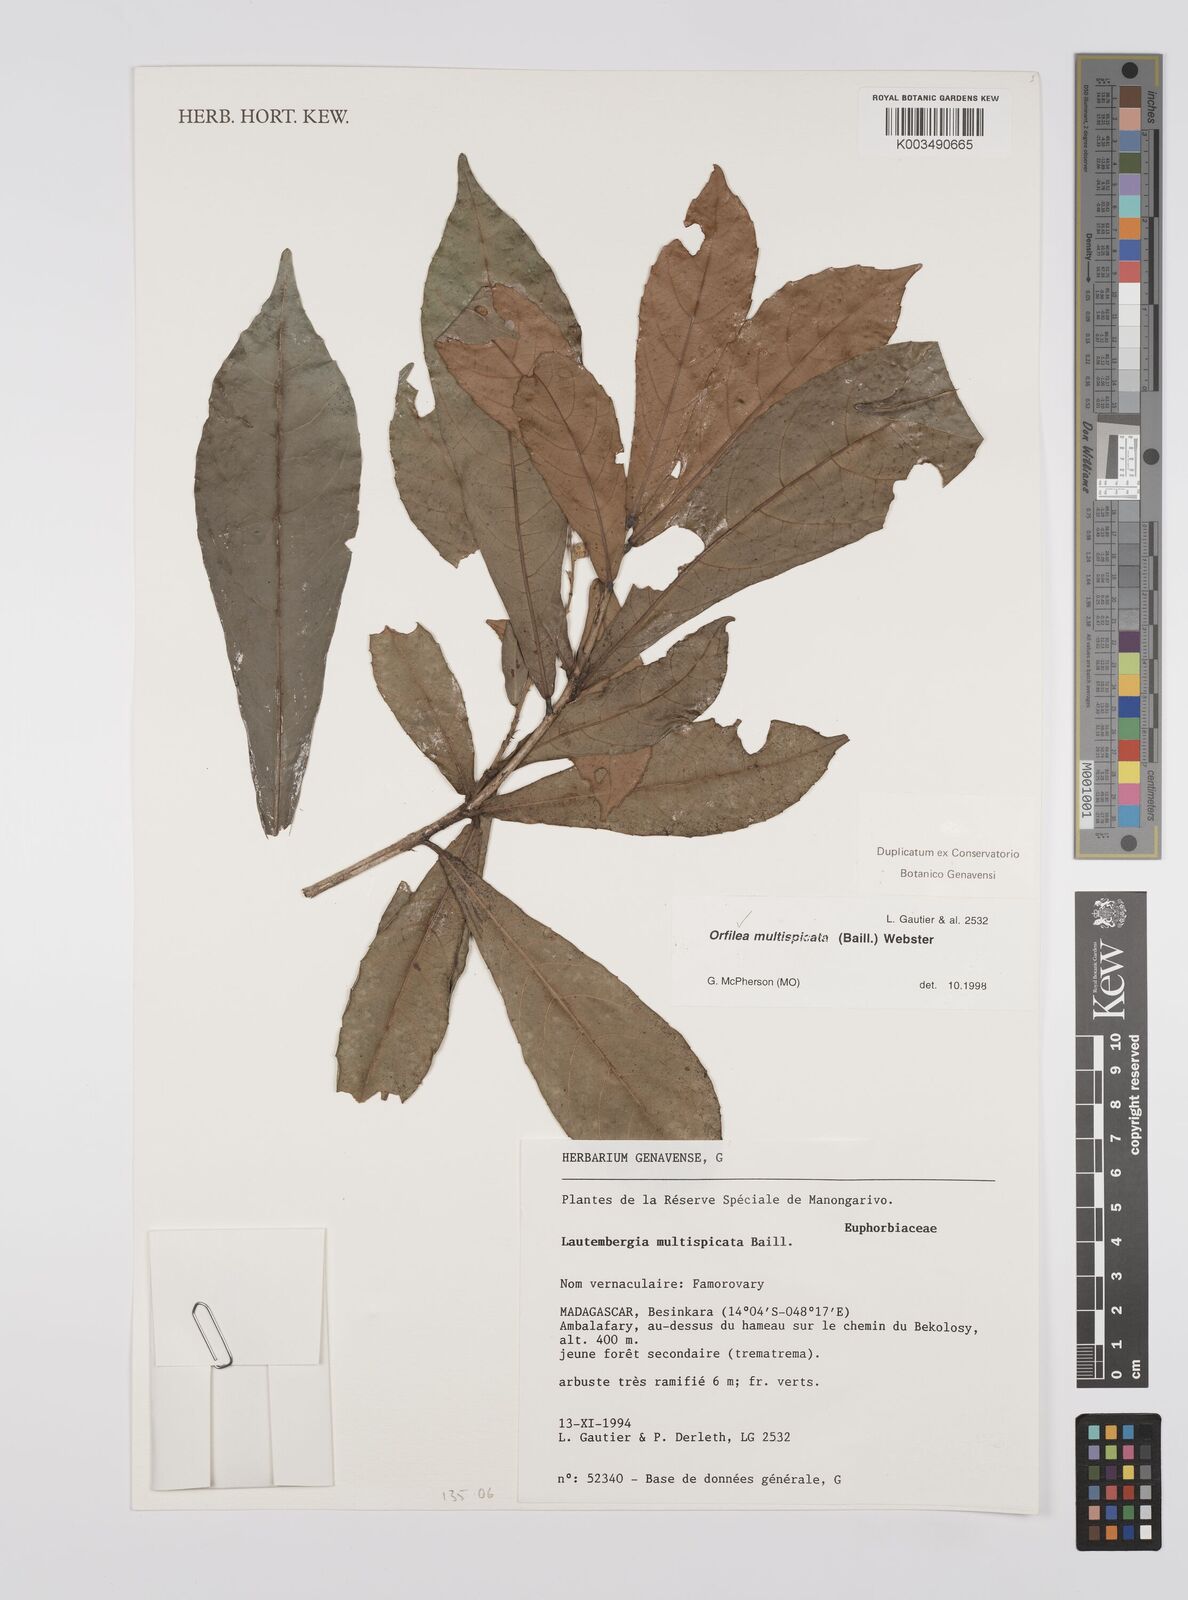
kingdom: Plantae
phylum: Tracheophyta
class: Magnoliopsida
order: Malpighiales
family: Euphorbiaceae
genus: Orfilea
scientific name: Orfilea multispicata
